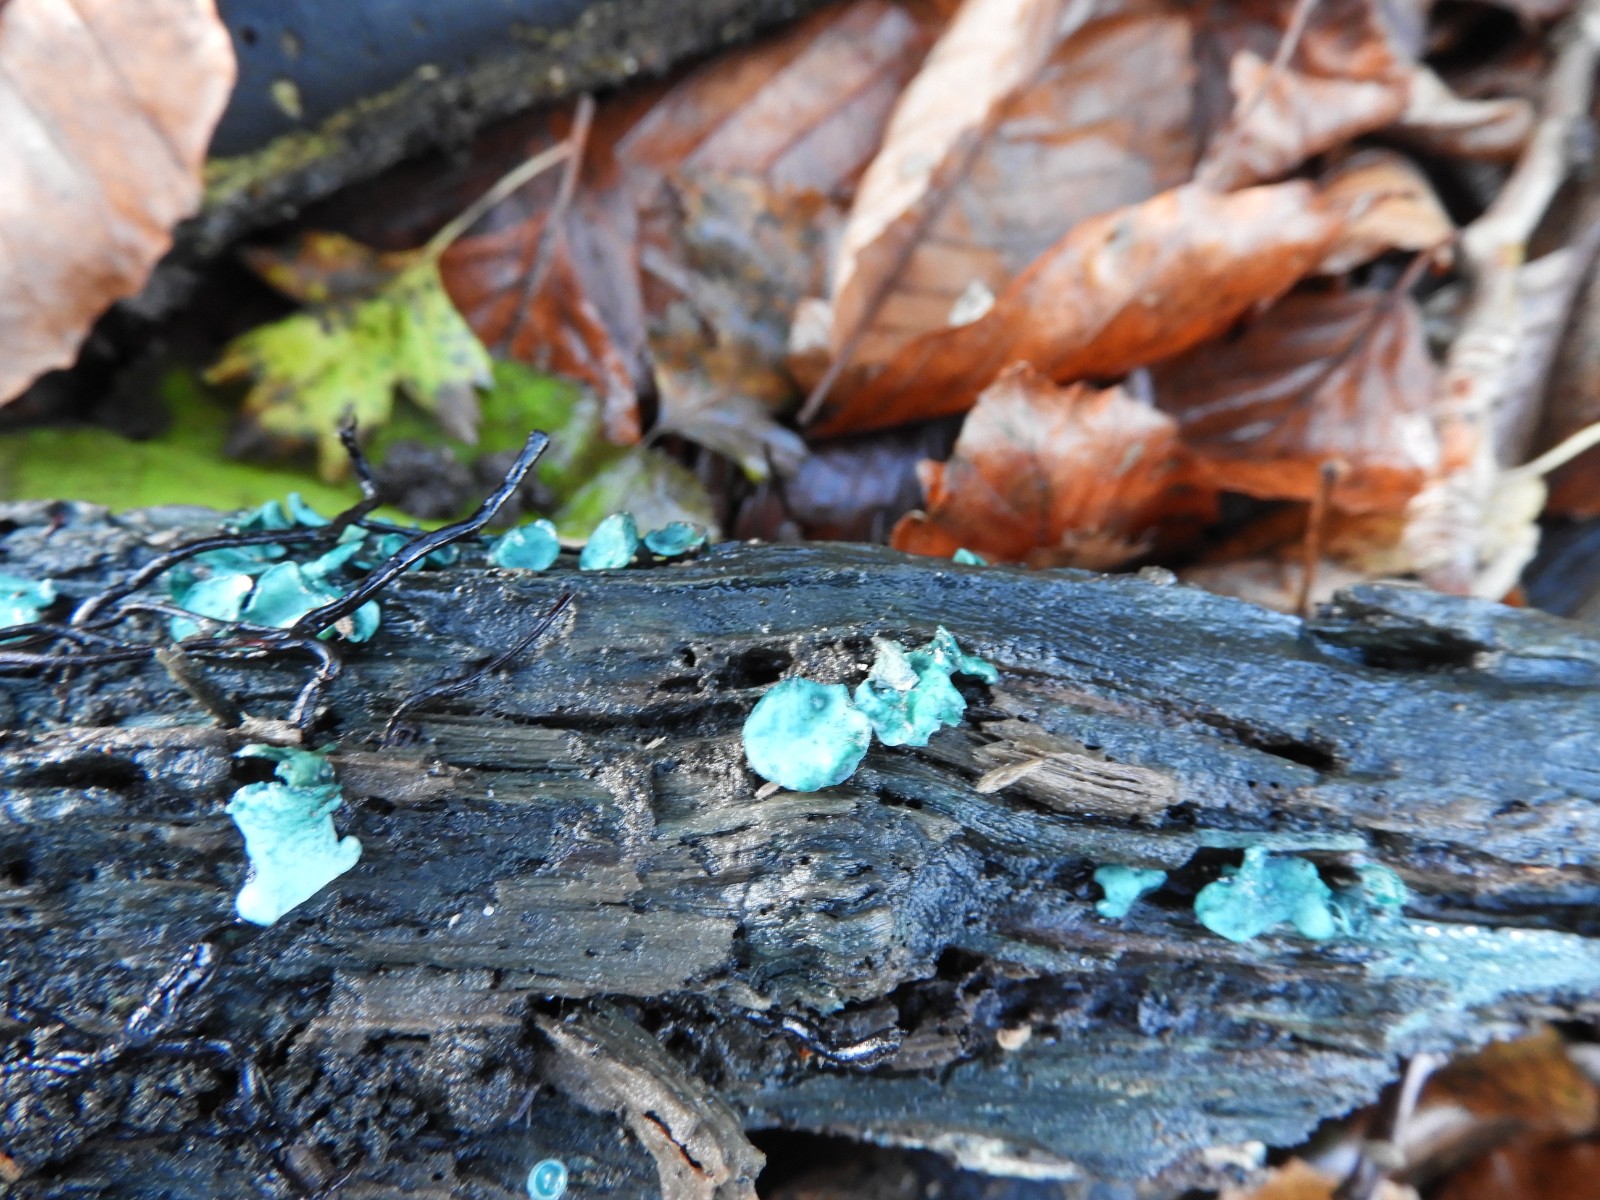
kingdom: Fungi
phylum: Ascomycota
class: Leotiomycetes
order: Helotiales
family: Chlorociboriaceae
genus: Chlorociboria
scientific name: Chlorociboria aeruginascens
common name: almindelig grønskive
